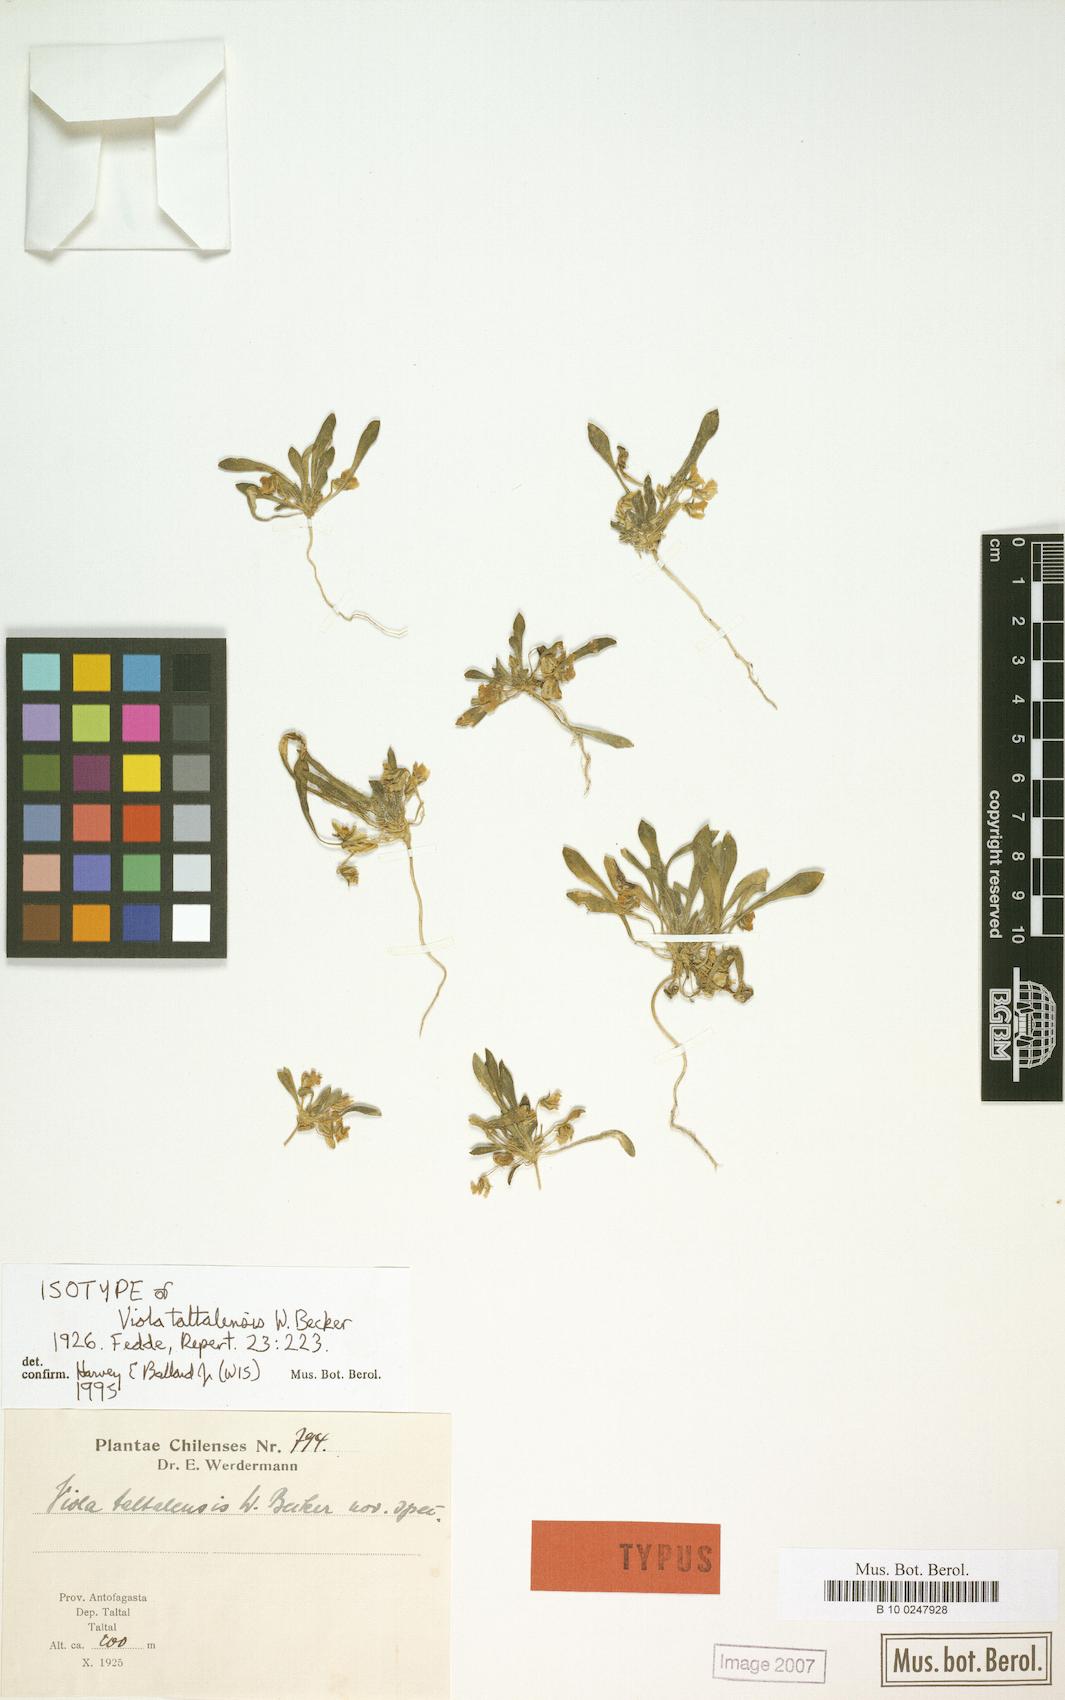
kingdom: Plantae
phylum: Tracheophyta
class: Magnoliopsida
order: Malpighiales
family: Violaceae
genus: Viola
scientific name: Viola taltalensis
